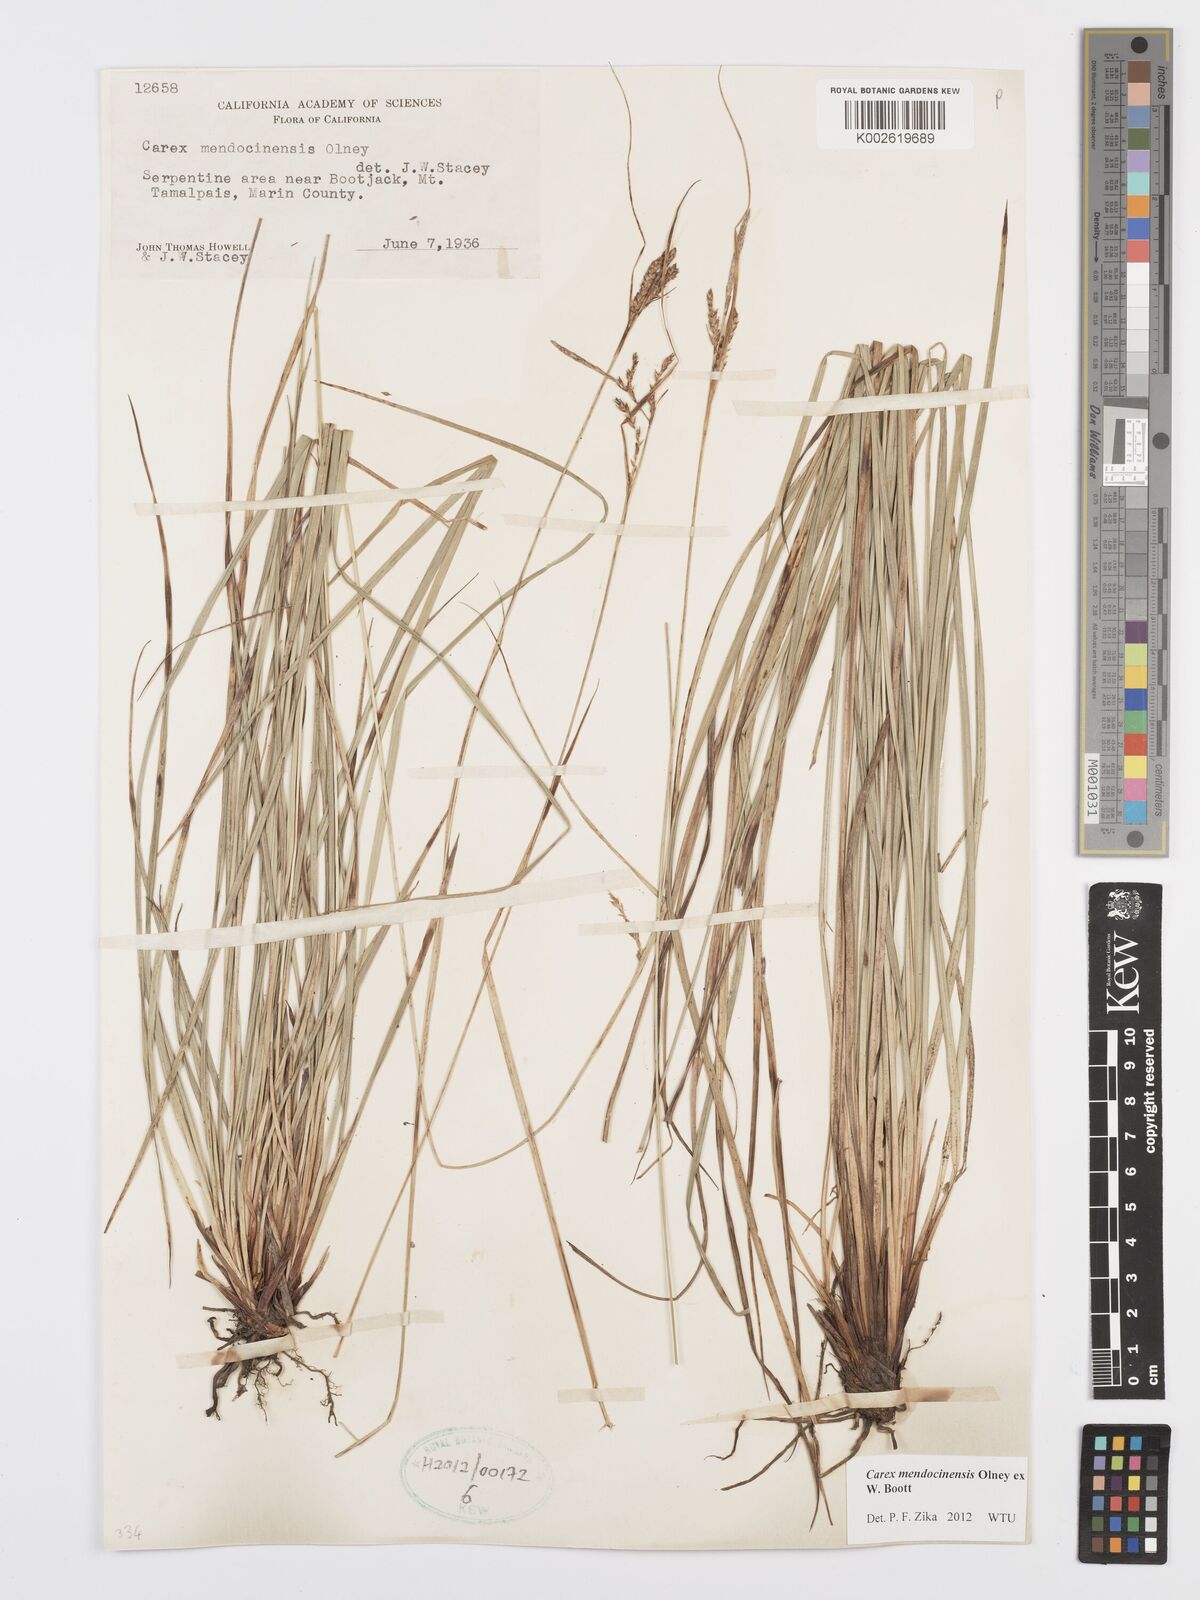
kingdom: Plantae
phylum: Tracheophyta
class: Liliopsida
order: Poales
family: Cyperaceae
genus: Carex
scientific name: Carex mendocinensis
